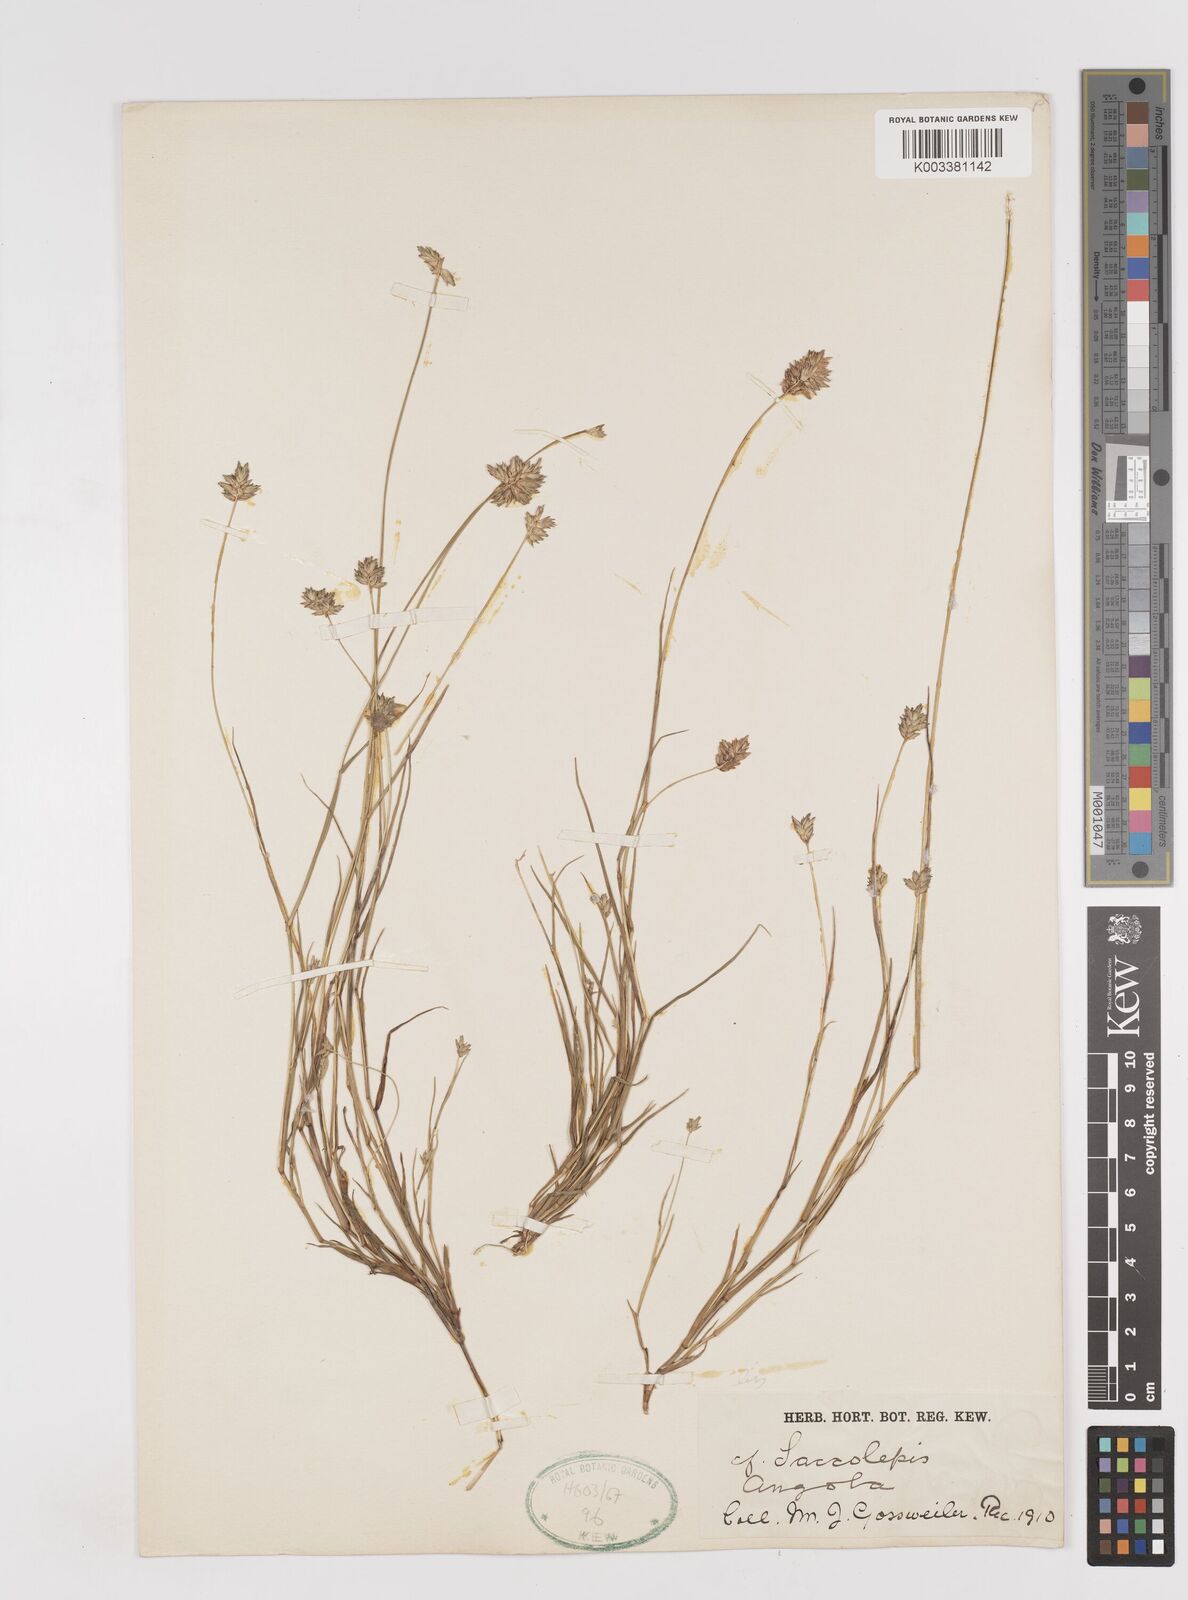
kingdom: Plantae
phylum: Tracheophyta
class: Liliopsida
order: Poales
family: Poaceae
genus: Sacciolepis
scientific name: Sacciolepis seslerioides
